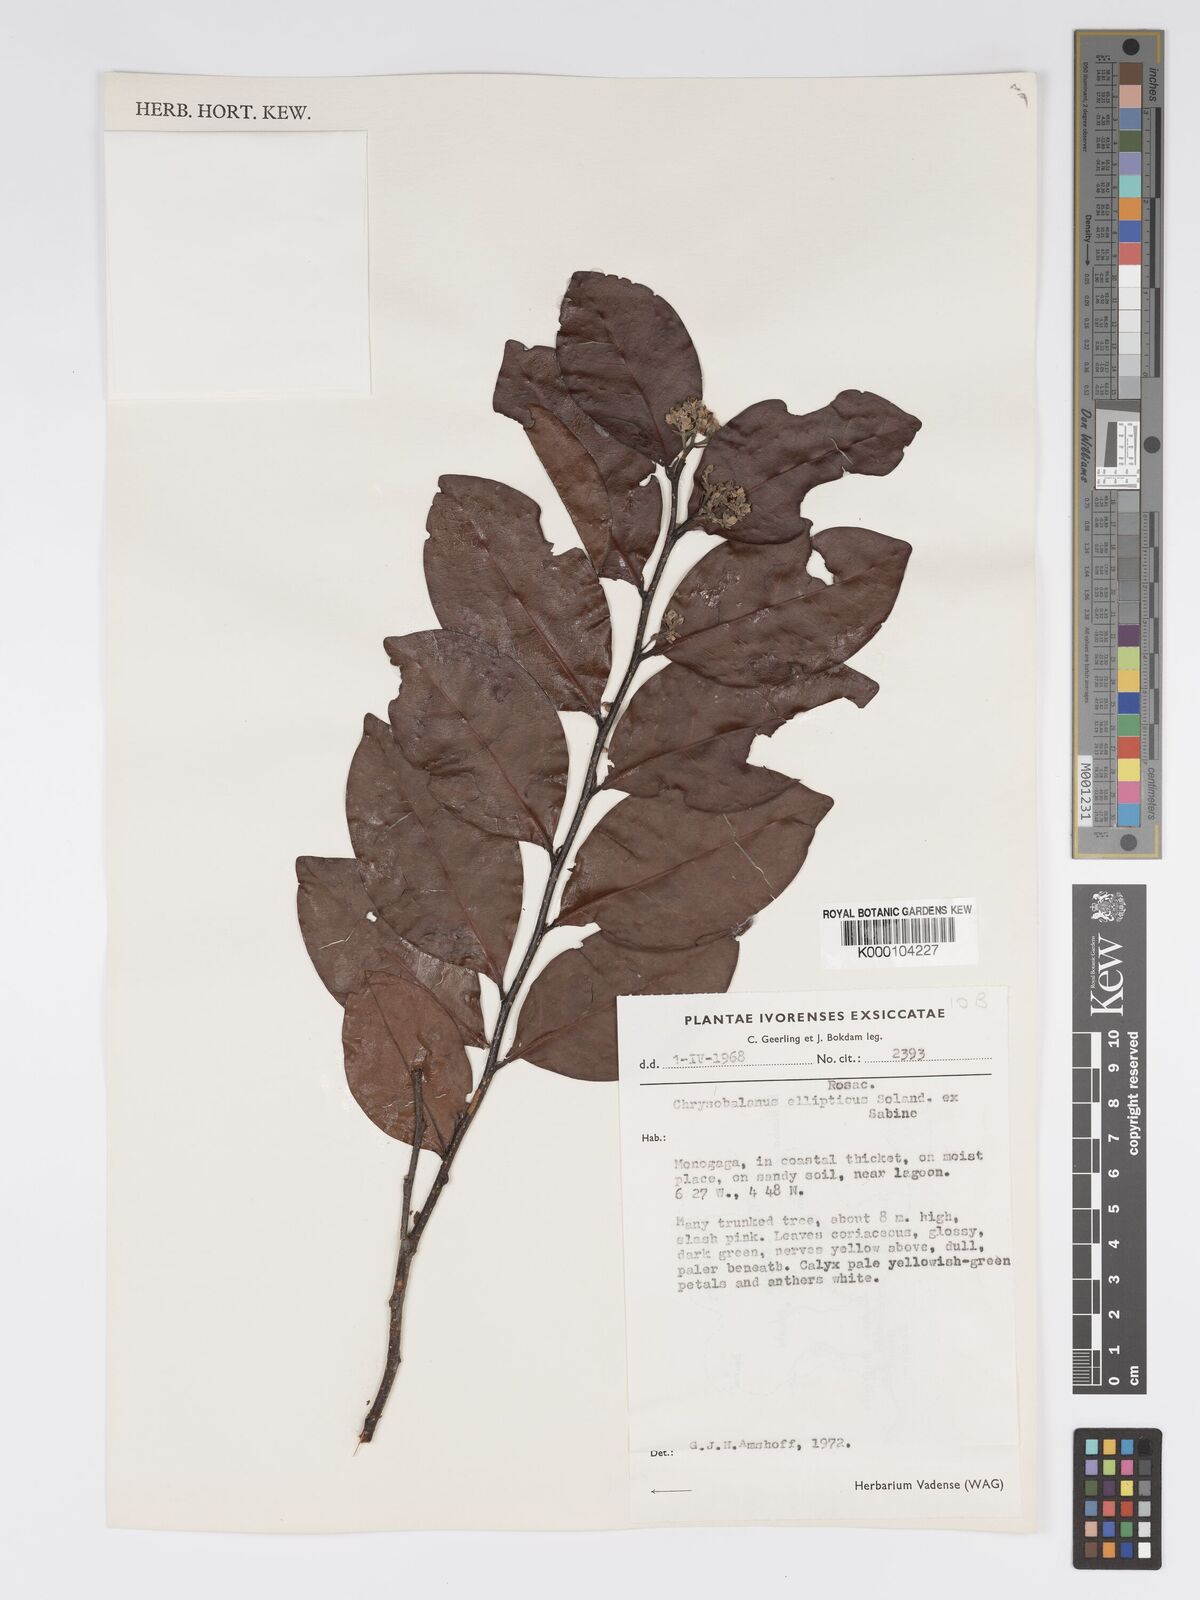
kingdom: Plantae
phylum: Tracheophyta
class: Magnoliopsida
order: Malpighiales
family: Chrysobalanaceae
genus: Chrysobalanus
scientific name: Chrysobalanus icaco
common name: Coco plum
